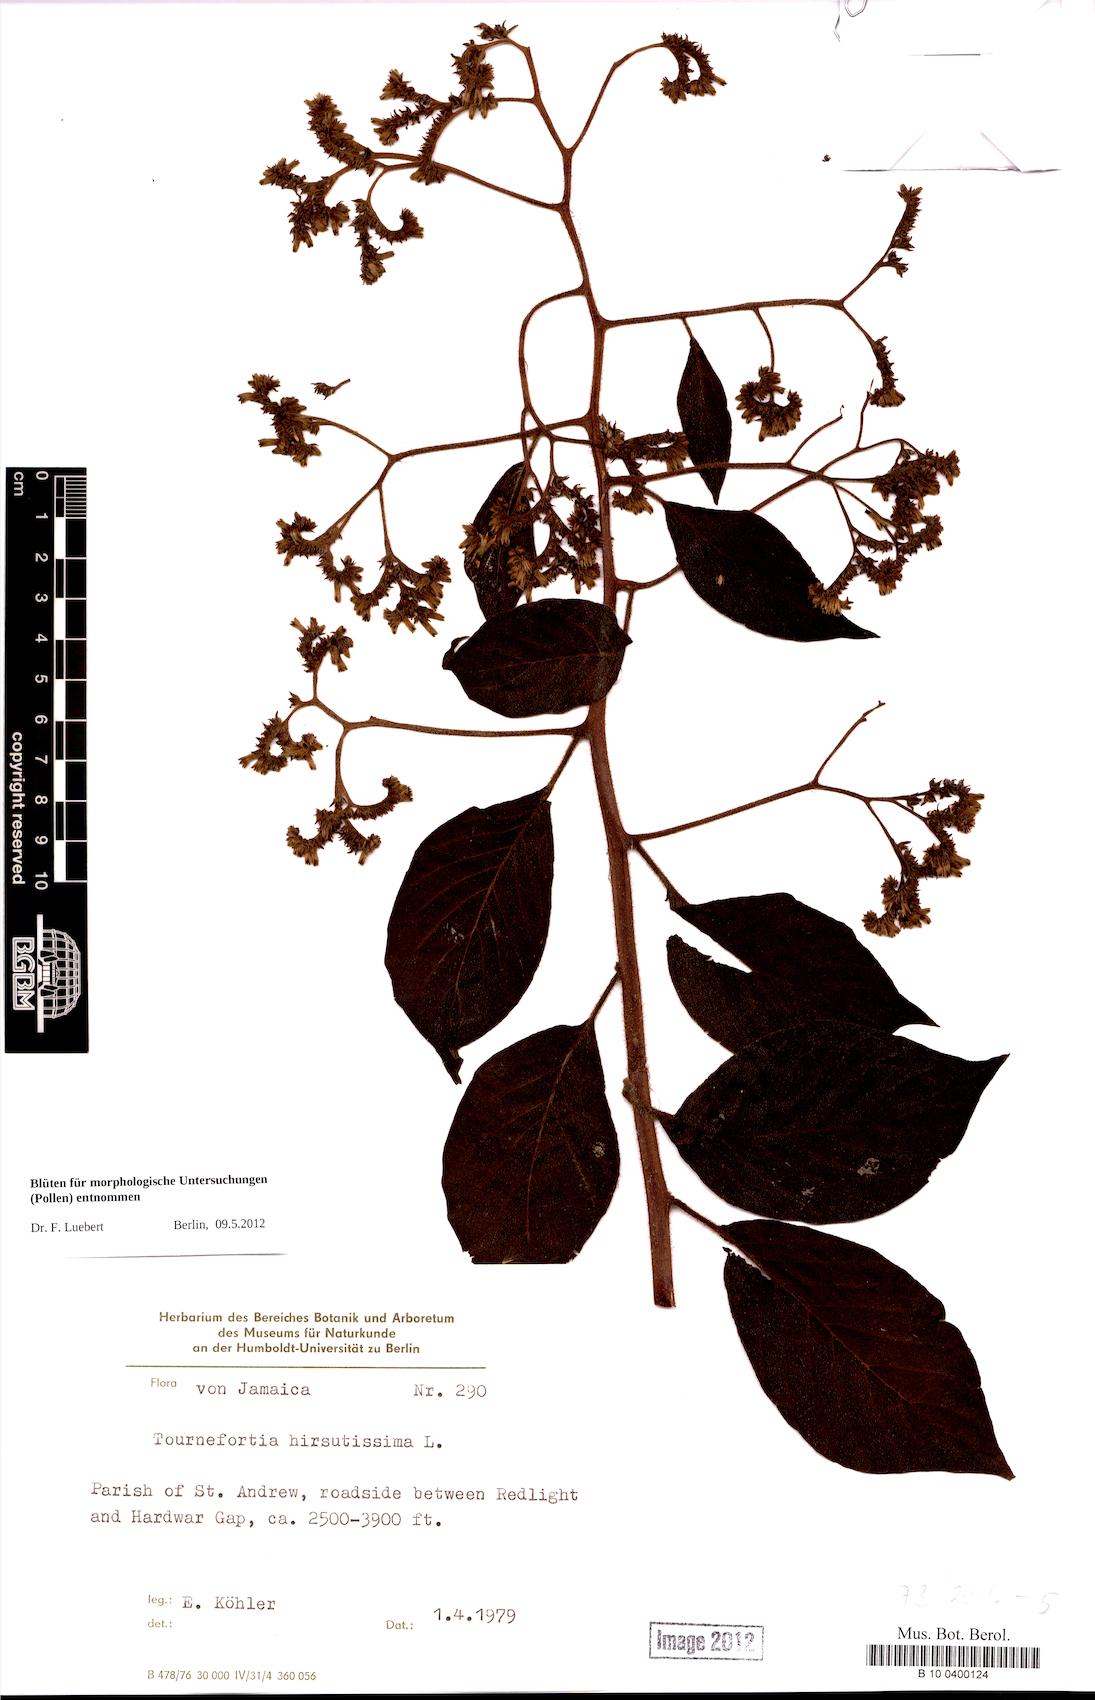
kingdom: Plantae
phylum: Tracheophyta
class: Magnoliopsida
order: Boraginales
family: Heliotropiaceae
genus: Heliotropium
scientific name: Heliotropium
